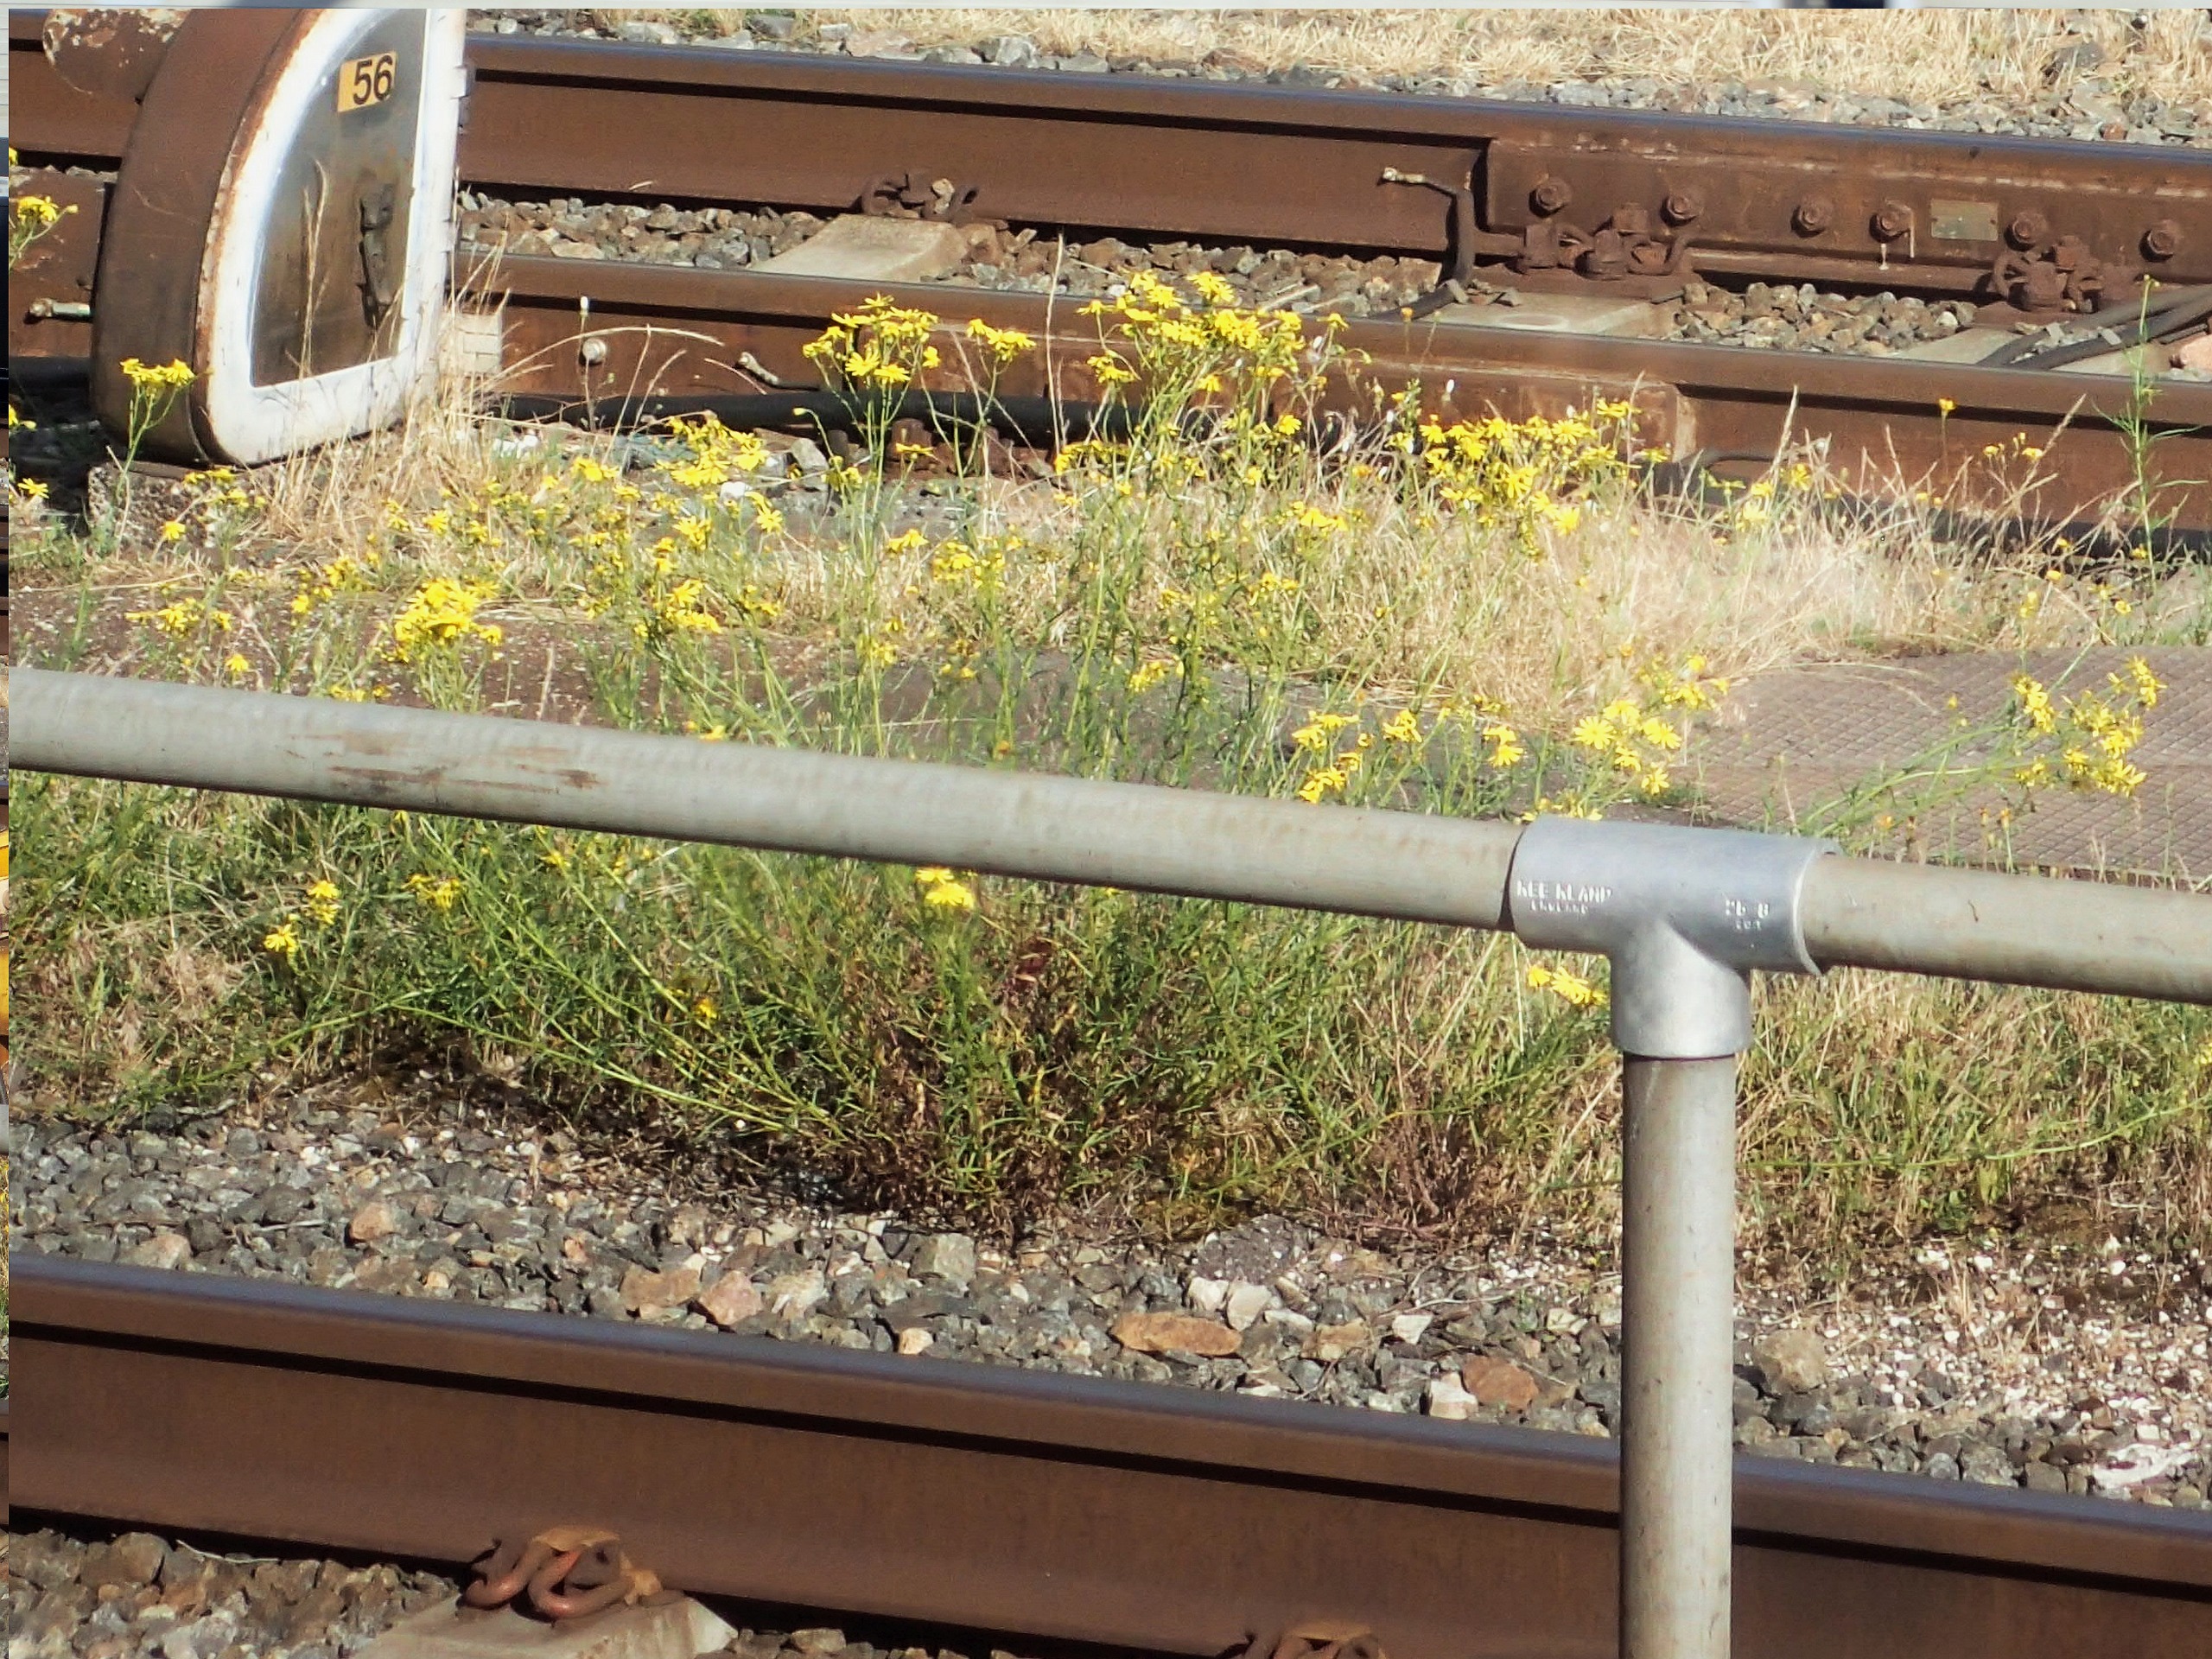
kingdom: Plantae
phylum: Tracheophyta
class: Magnoliopsida
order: Asterales
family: Asteraceae
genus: Senecio
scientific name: Senecio inaequidens
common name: Smalbladet brandbæger
